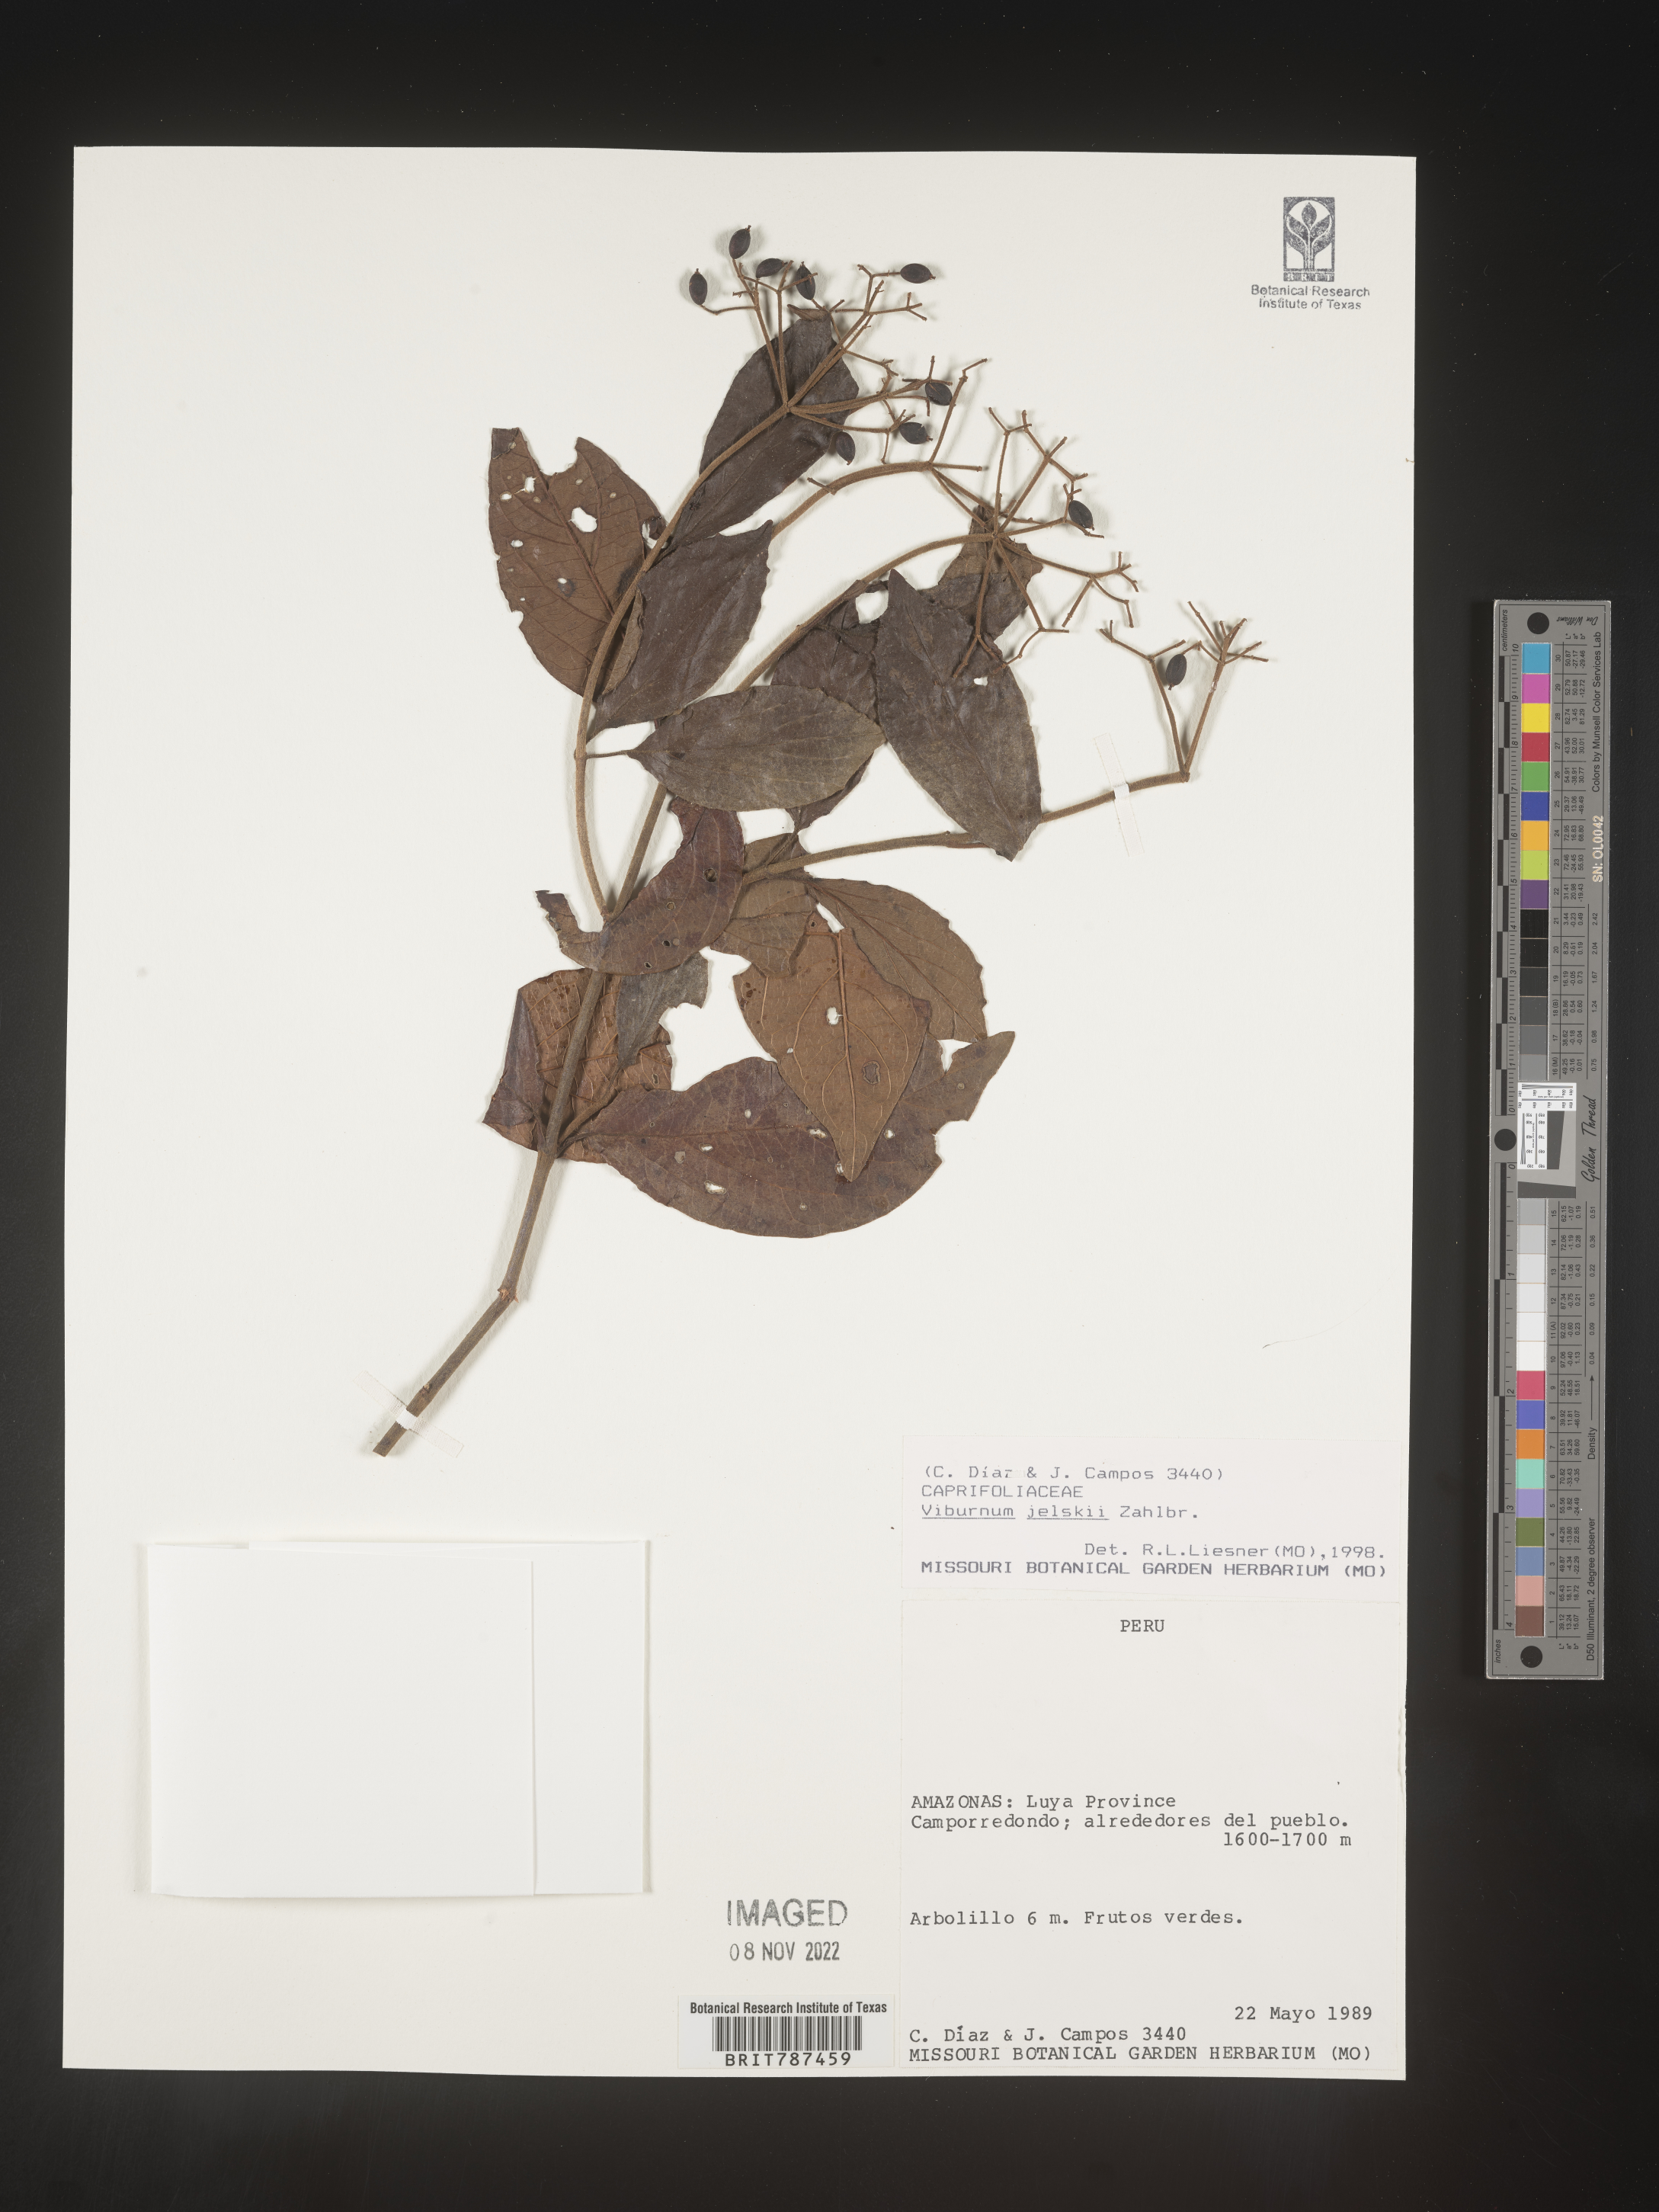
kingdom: Plantae
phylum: Tracheophyta
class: Magnoliopsida
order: Dipsacales
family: Viburnaceae
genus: Viburnum
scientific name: Viburnum
